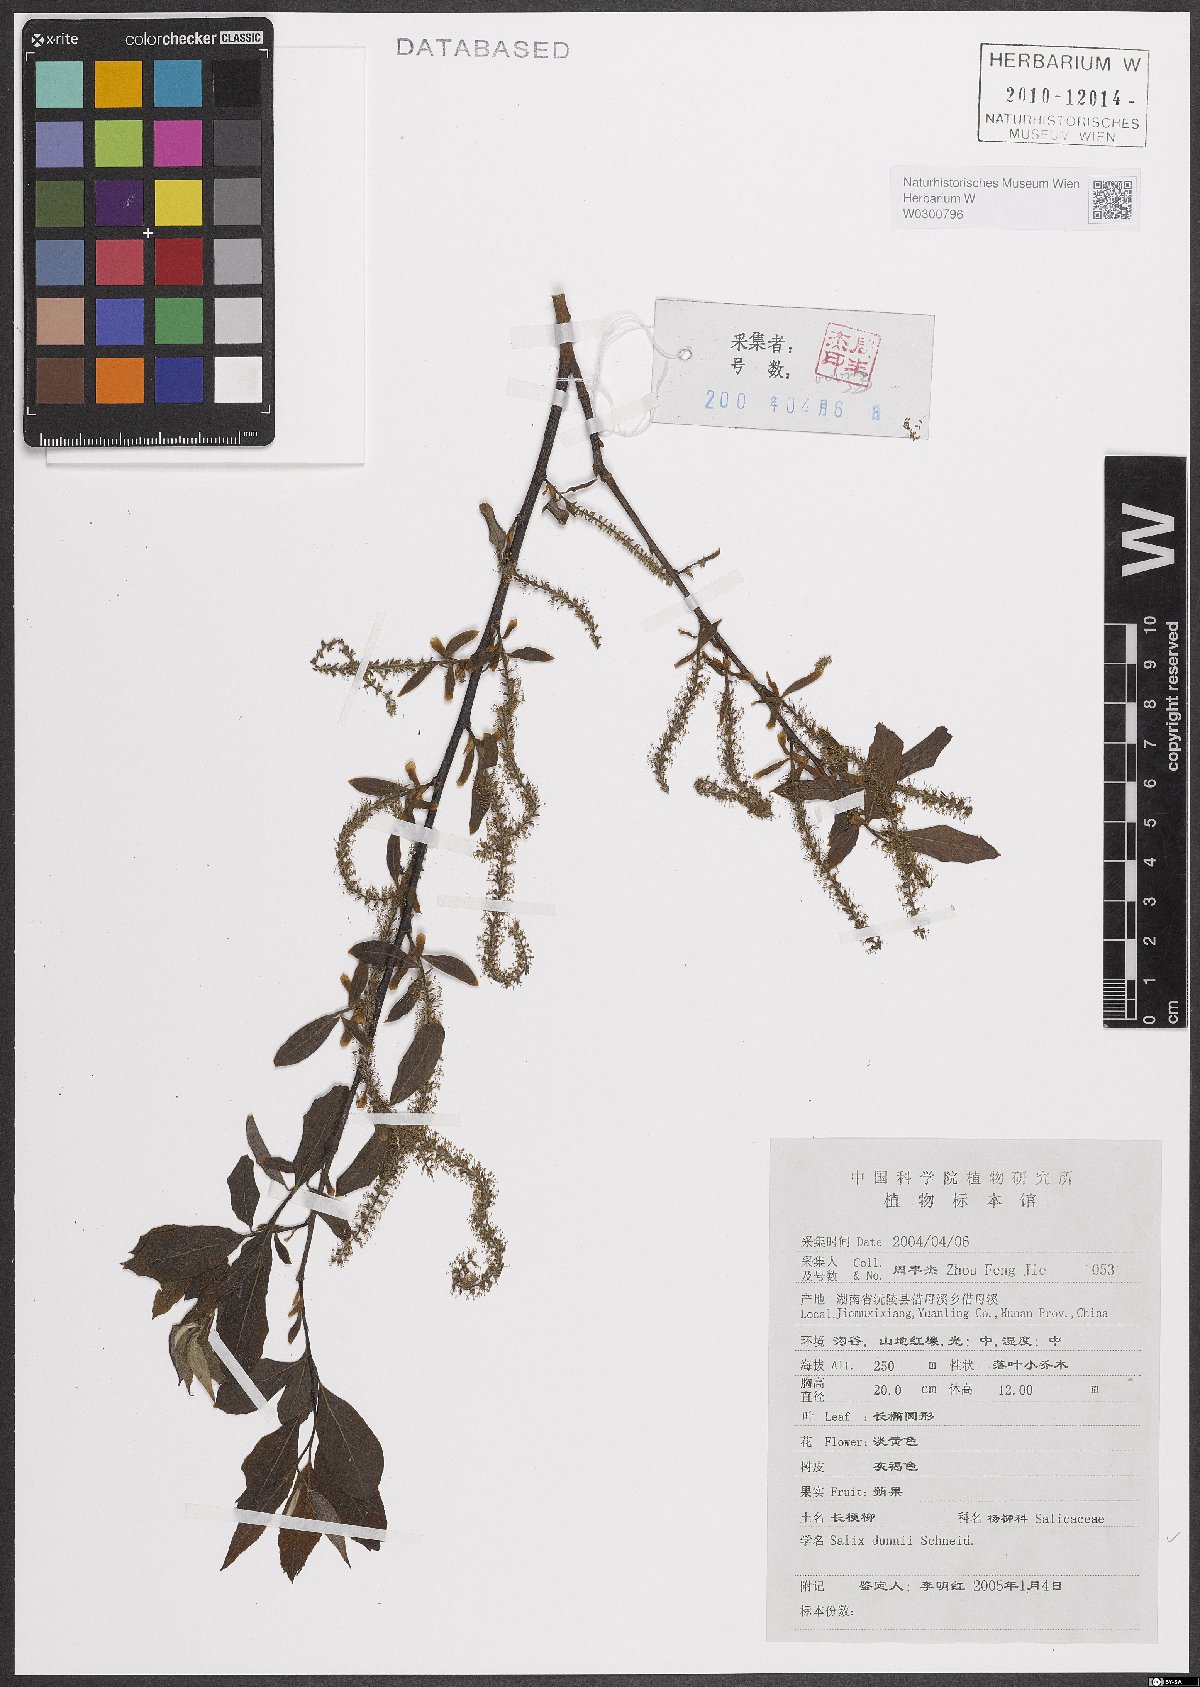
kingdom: Plantae
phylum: Tracheophyta
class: Magnoliopsida
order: Malpighiales
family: Salicaceae
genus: Salix
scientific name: Salix mesnyi
